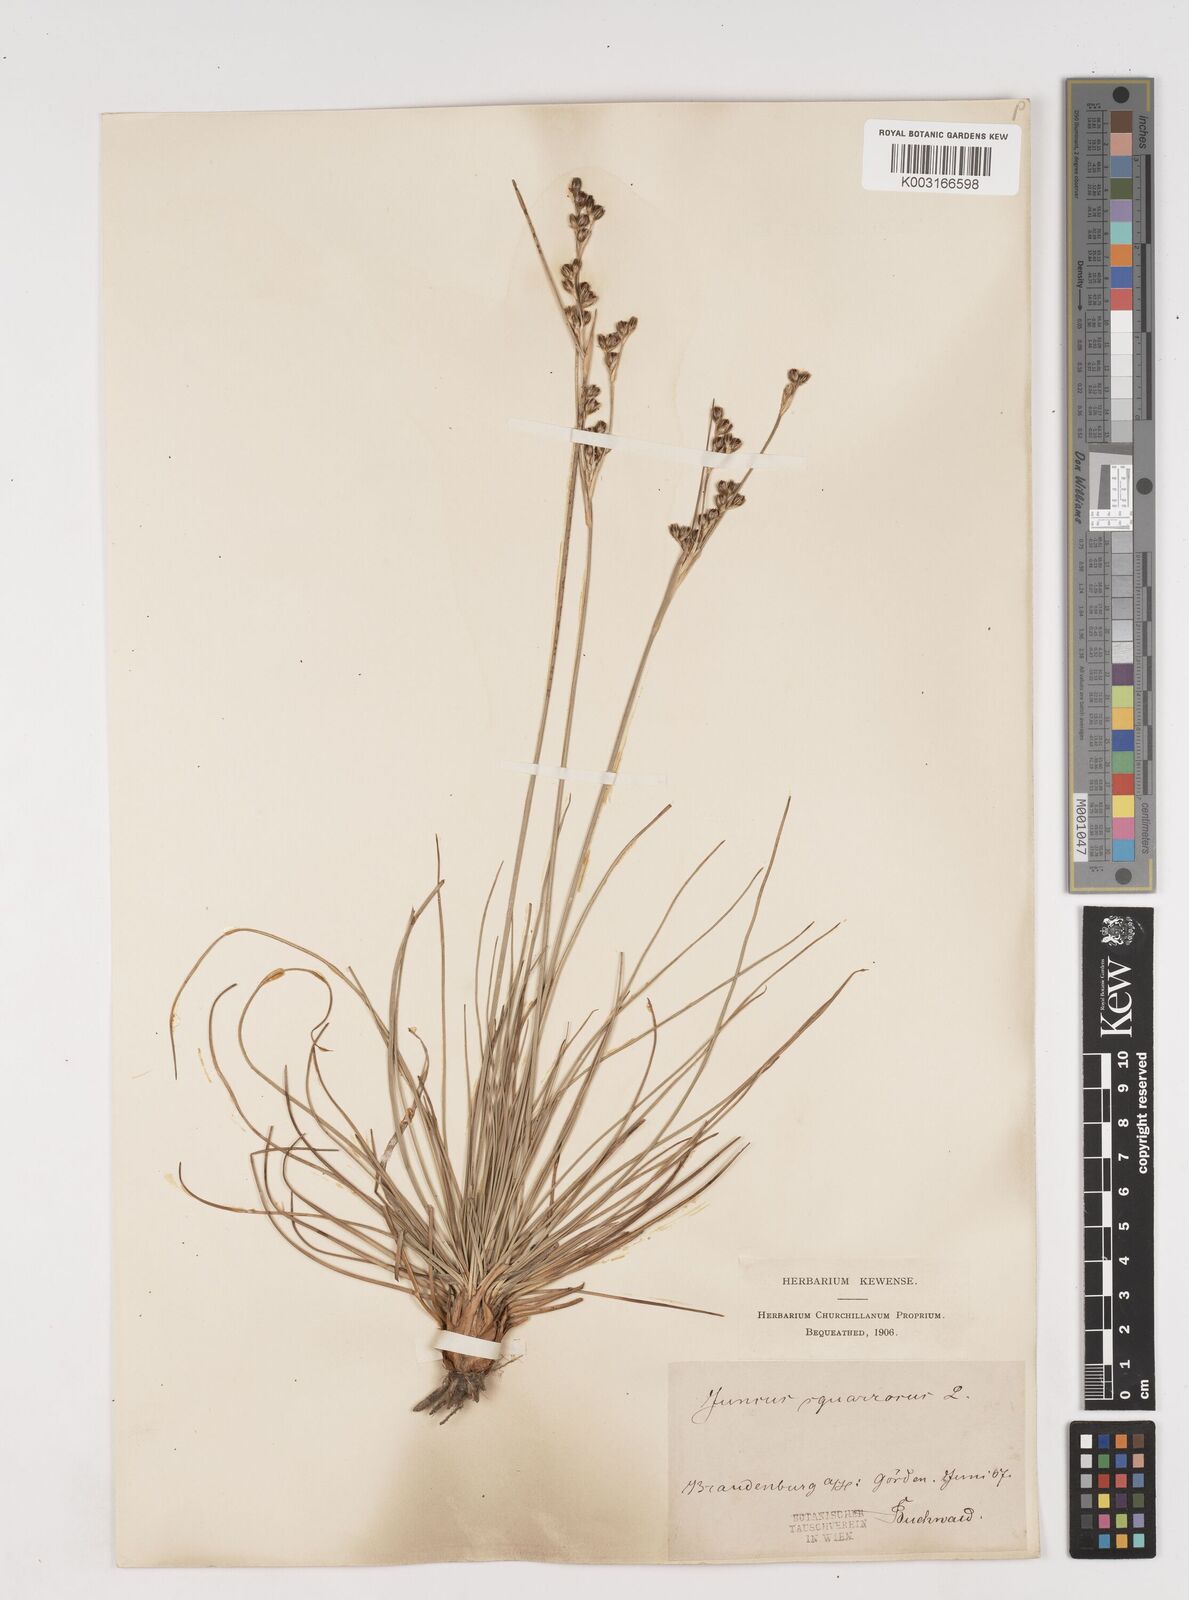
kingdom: Plantae
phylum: Tracheophyta
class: Liliopsida
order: Poales
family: Juncaceae
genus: Juncus
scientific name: Juncus squarrosus
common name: Heath rush
